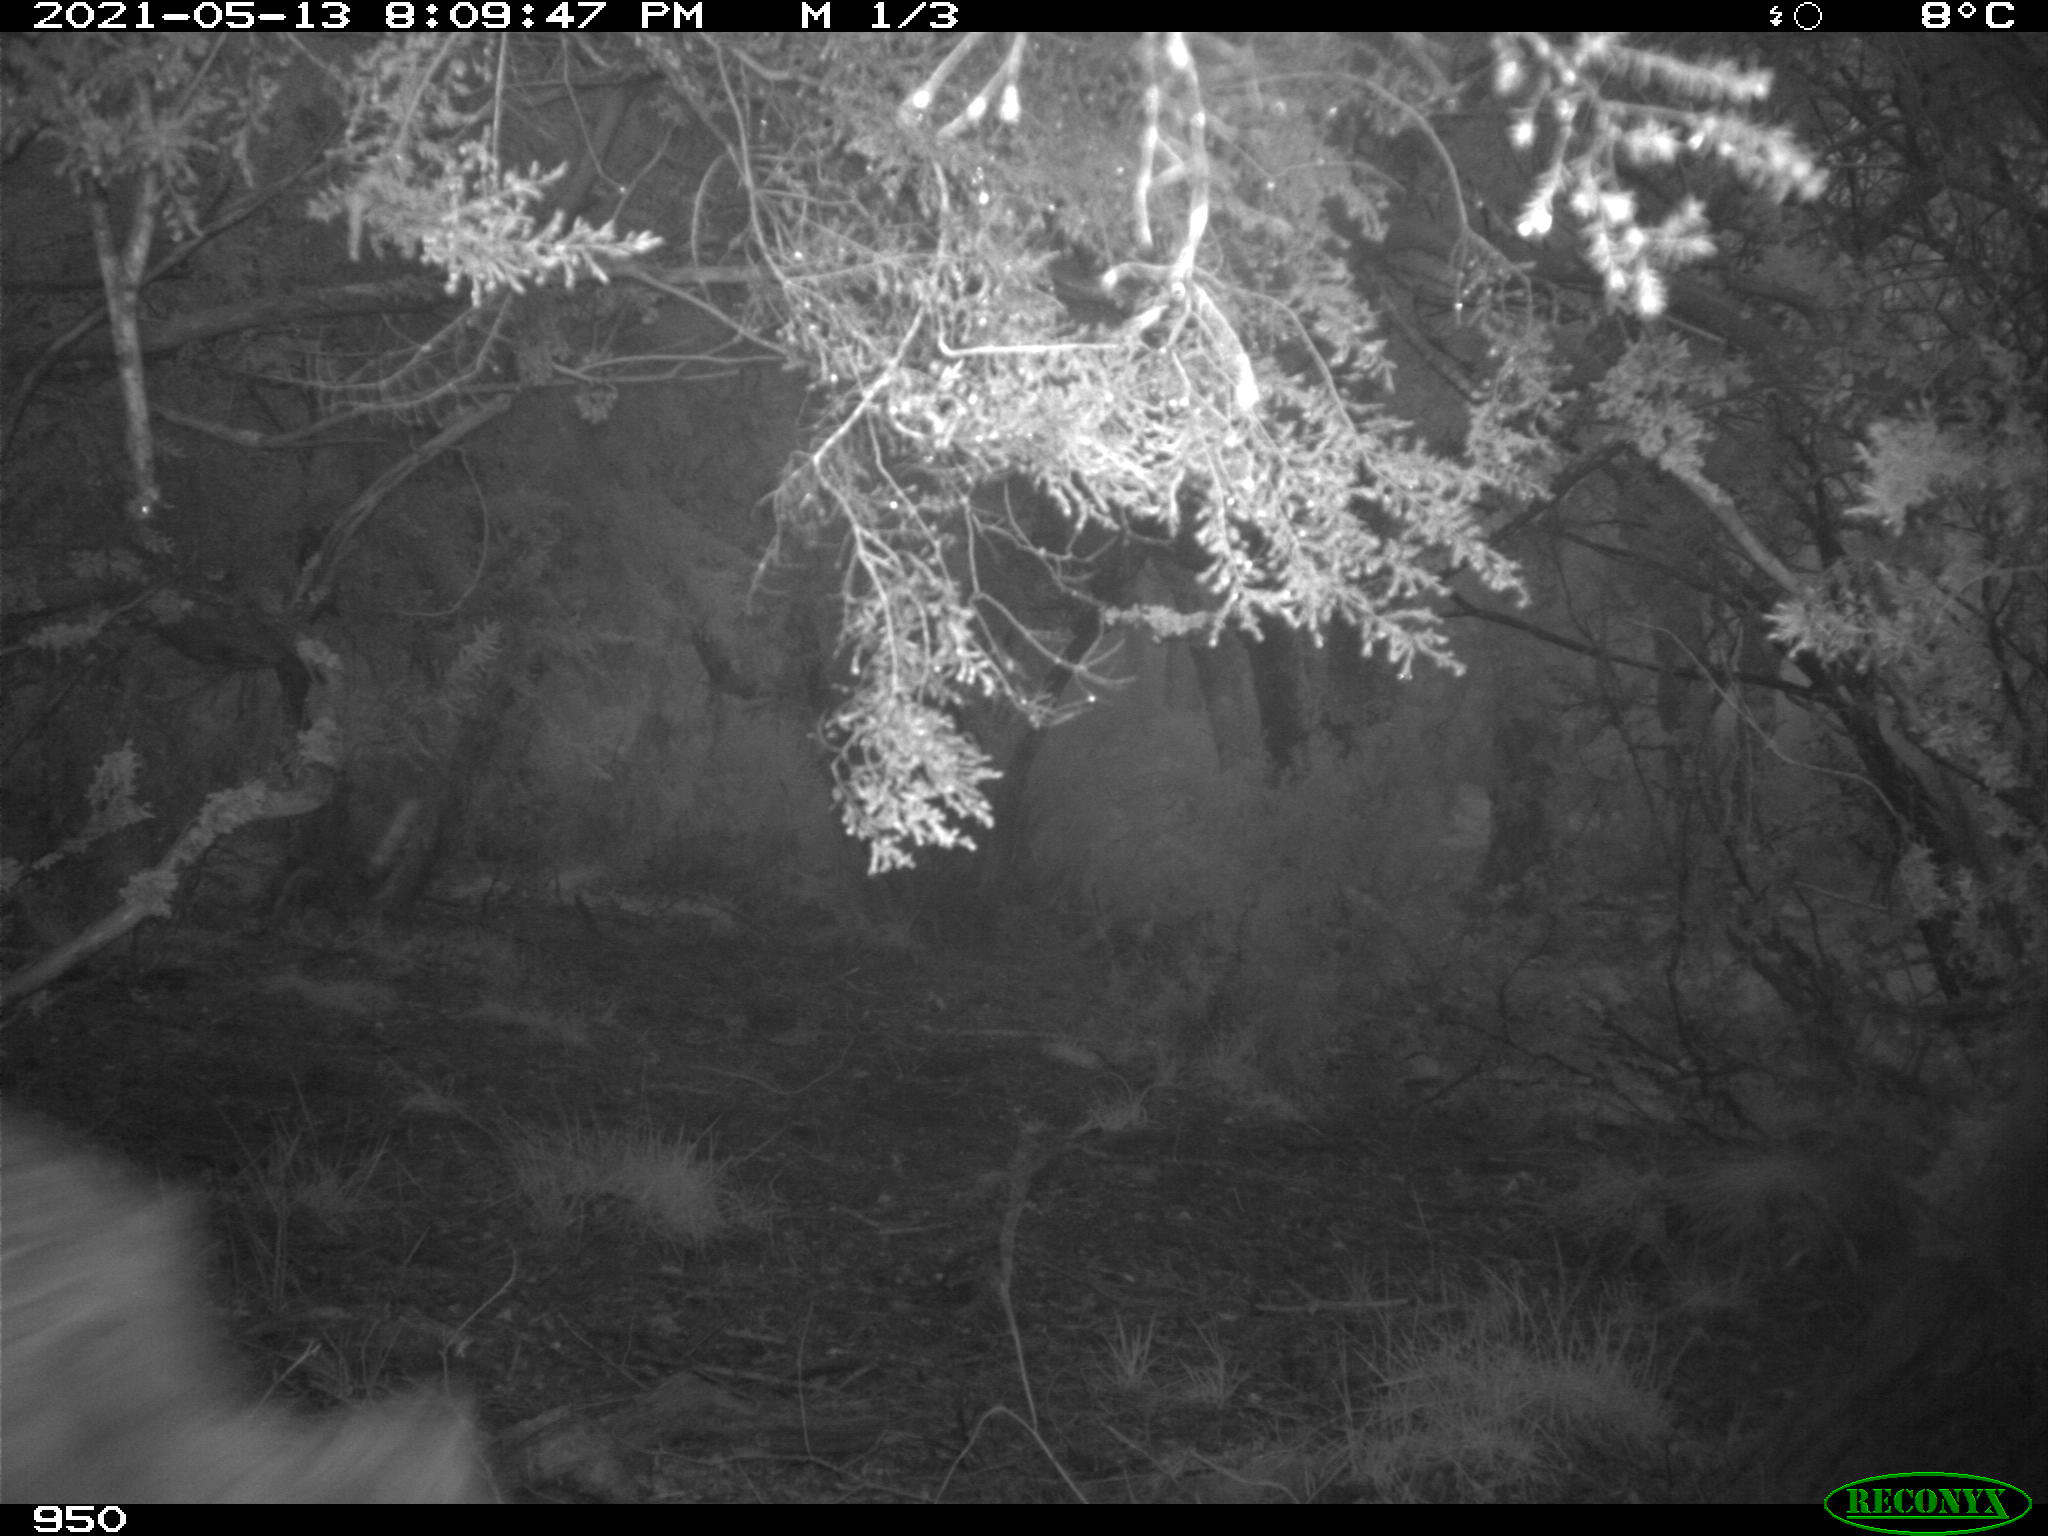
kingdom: Animalia
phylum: Chordata
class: Mammalia
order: Artiodactyla
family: Cervidae
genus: Capreolus
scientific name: Capreolus capreolus
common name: Western roe deer
